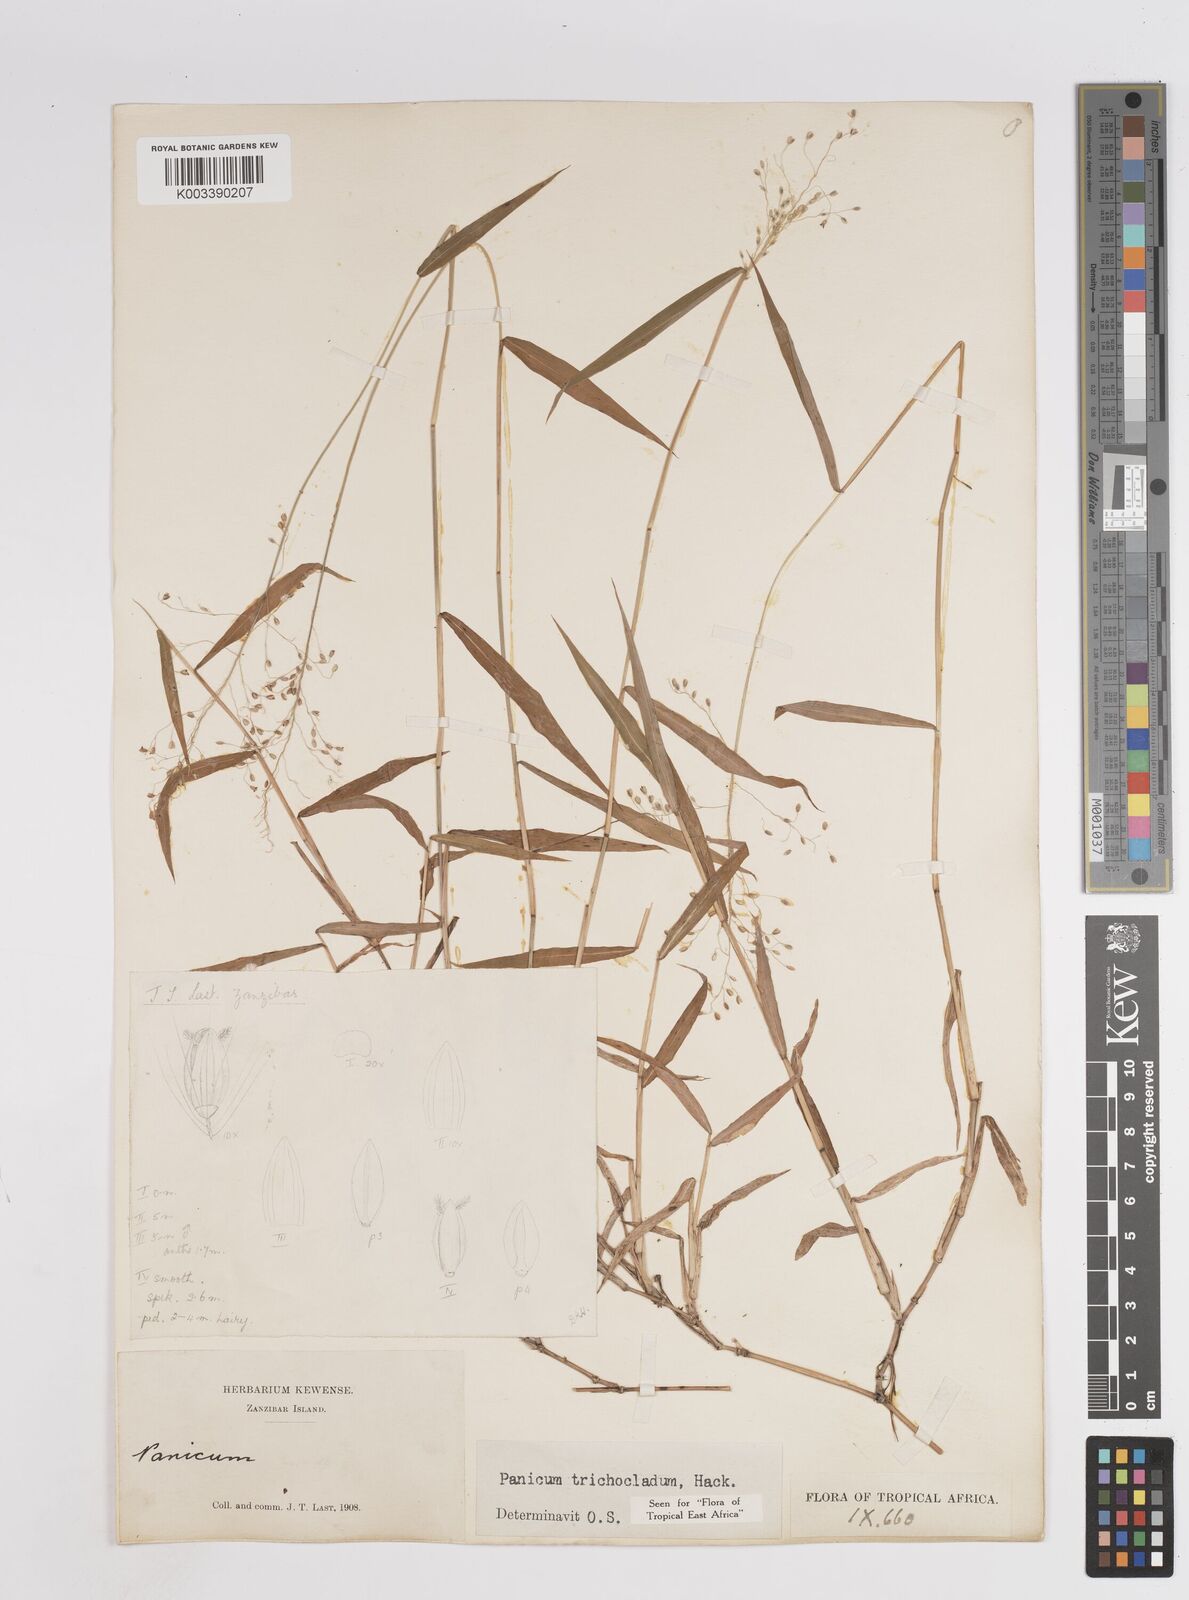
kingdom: Plantae
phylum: Tracheophyta
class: Liliopsida
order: Poales
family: Poaceae
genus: Panicum
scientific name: Panicum trichocladum
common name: Donkey grass
